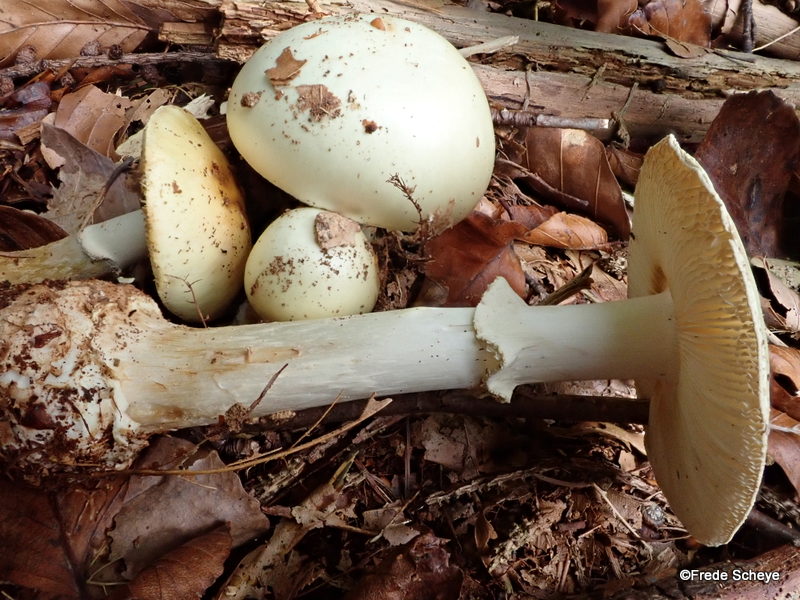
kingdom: Fungi
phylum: Basidiomycota
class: Agaricomycetes
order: Agaricales
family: Amanitaceae
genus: Amanita
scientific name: Amanita citrina
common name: kugleknoldet fluesvamp
